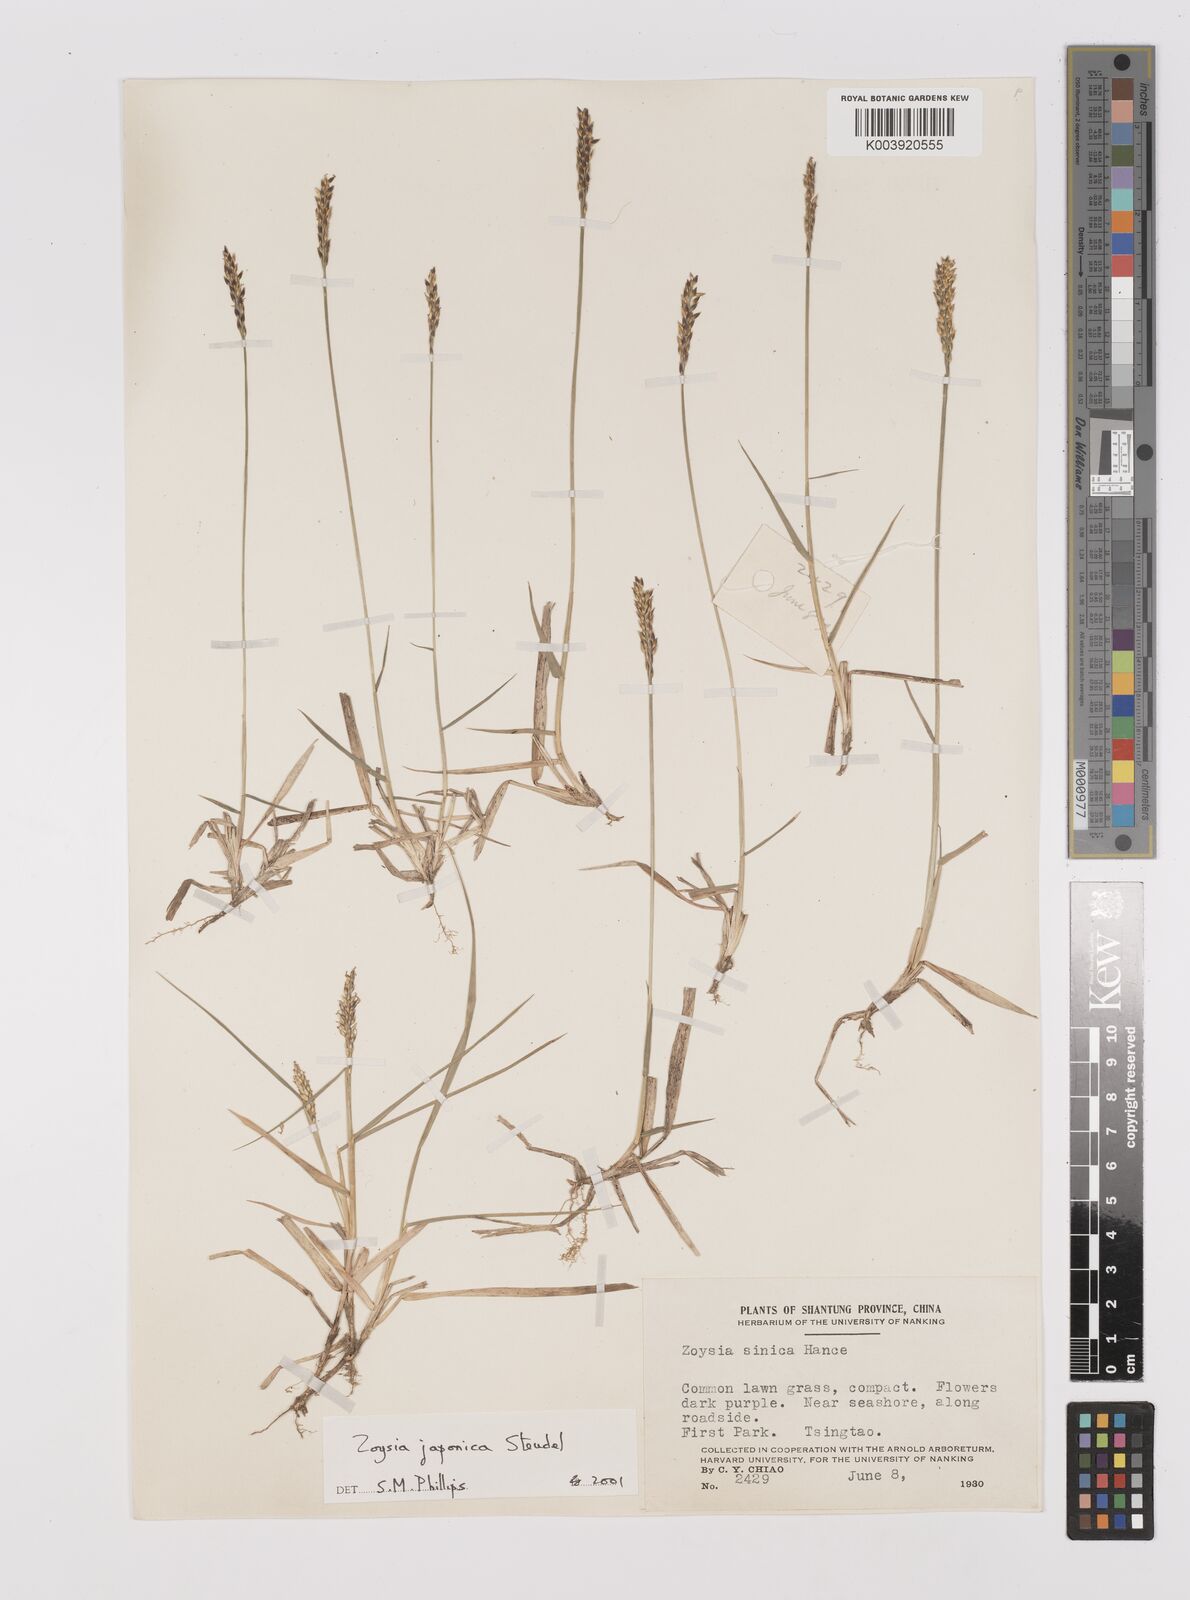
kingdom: Plantae
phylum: Tracheophyta
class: Liliopsida
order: Poales
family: Poaceae
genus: Zoysia
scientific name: Zoysia japonica
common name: Korean lawngrass
